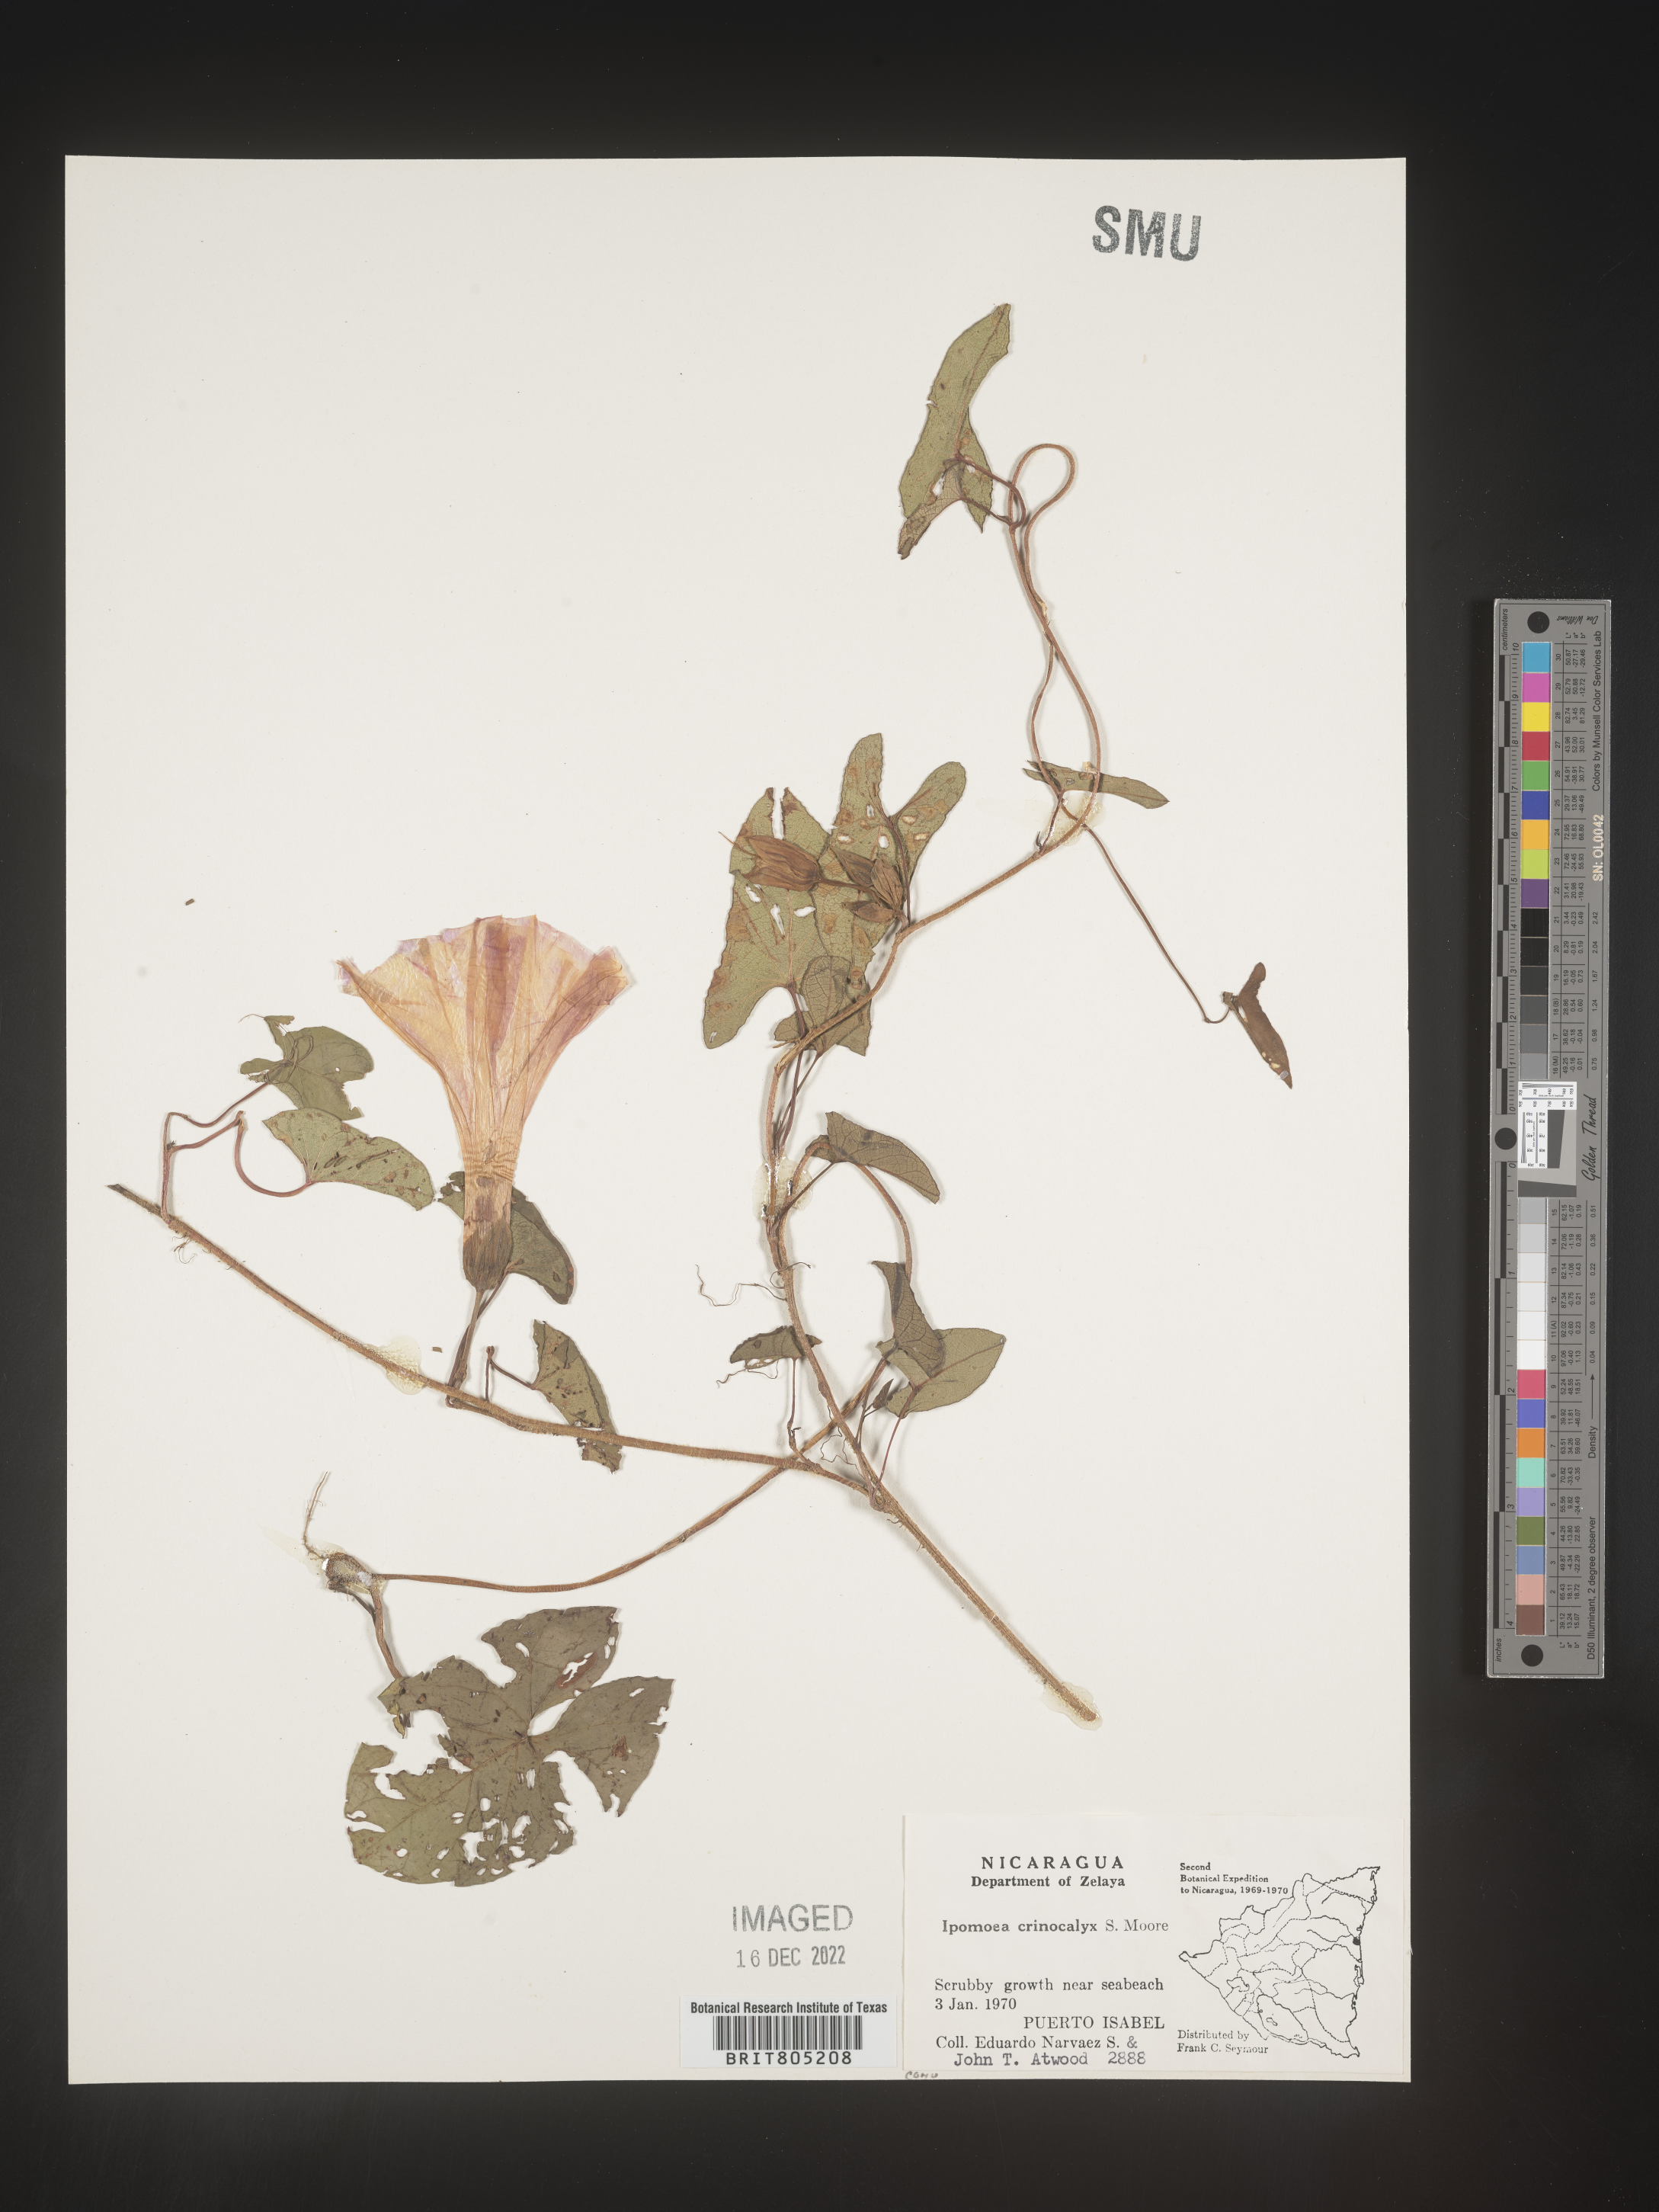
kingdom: Plantae
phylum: Tracheophyta
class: Magnoliopsida
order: Solanales
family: Convolvulaceae
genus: Ipomoea
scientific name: Ipomoea
